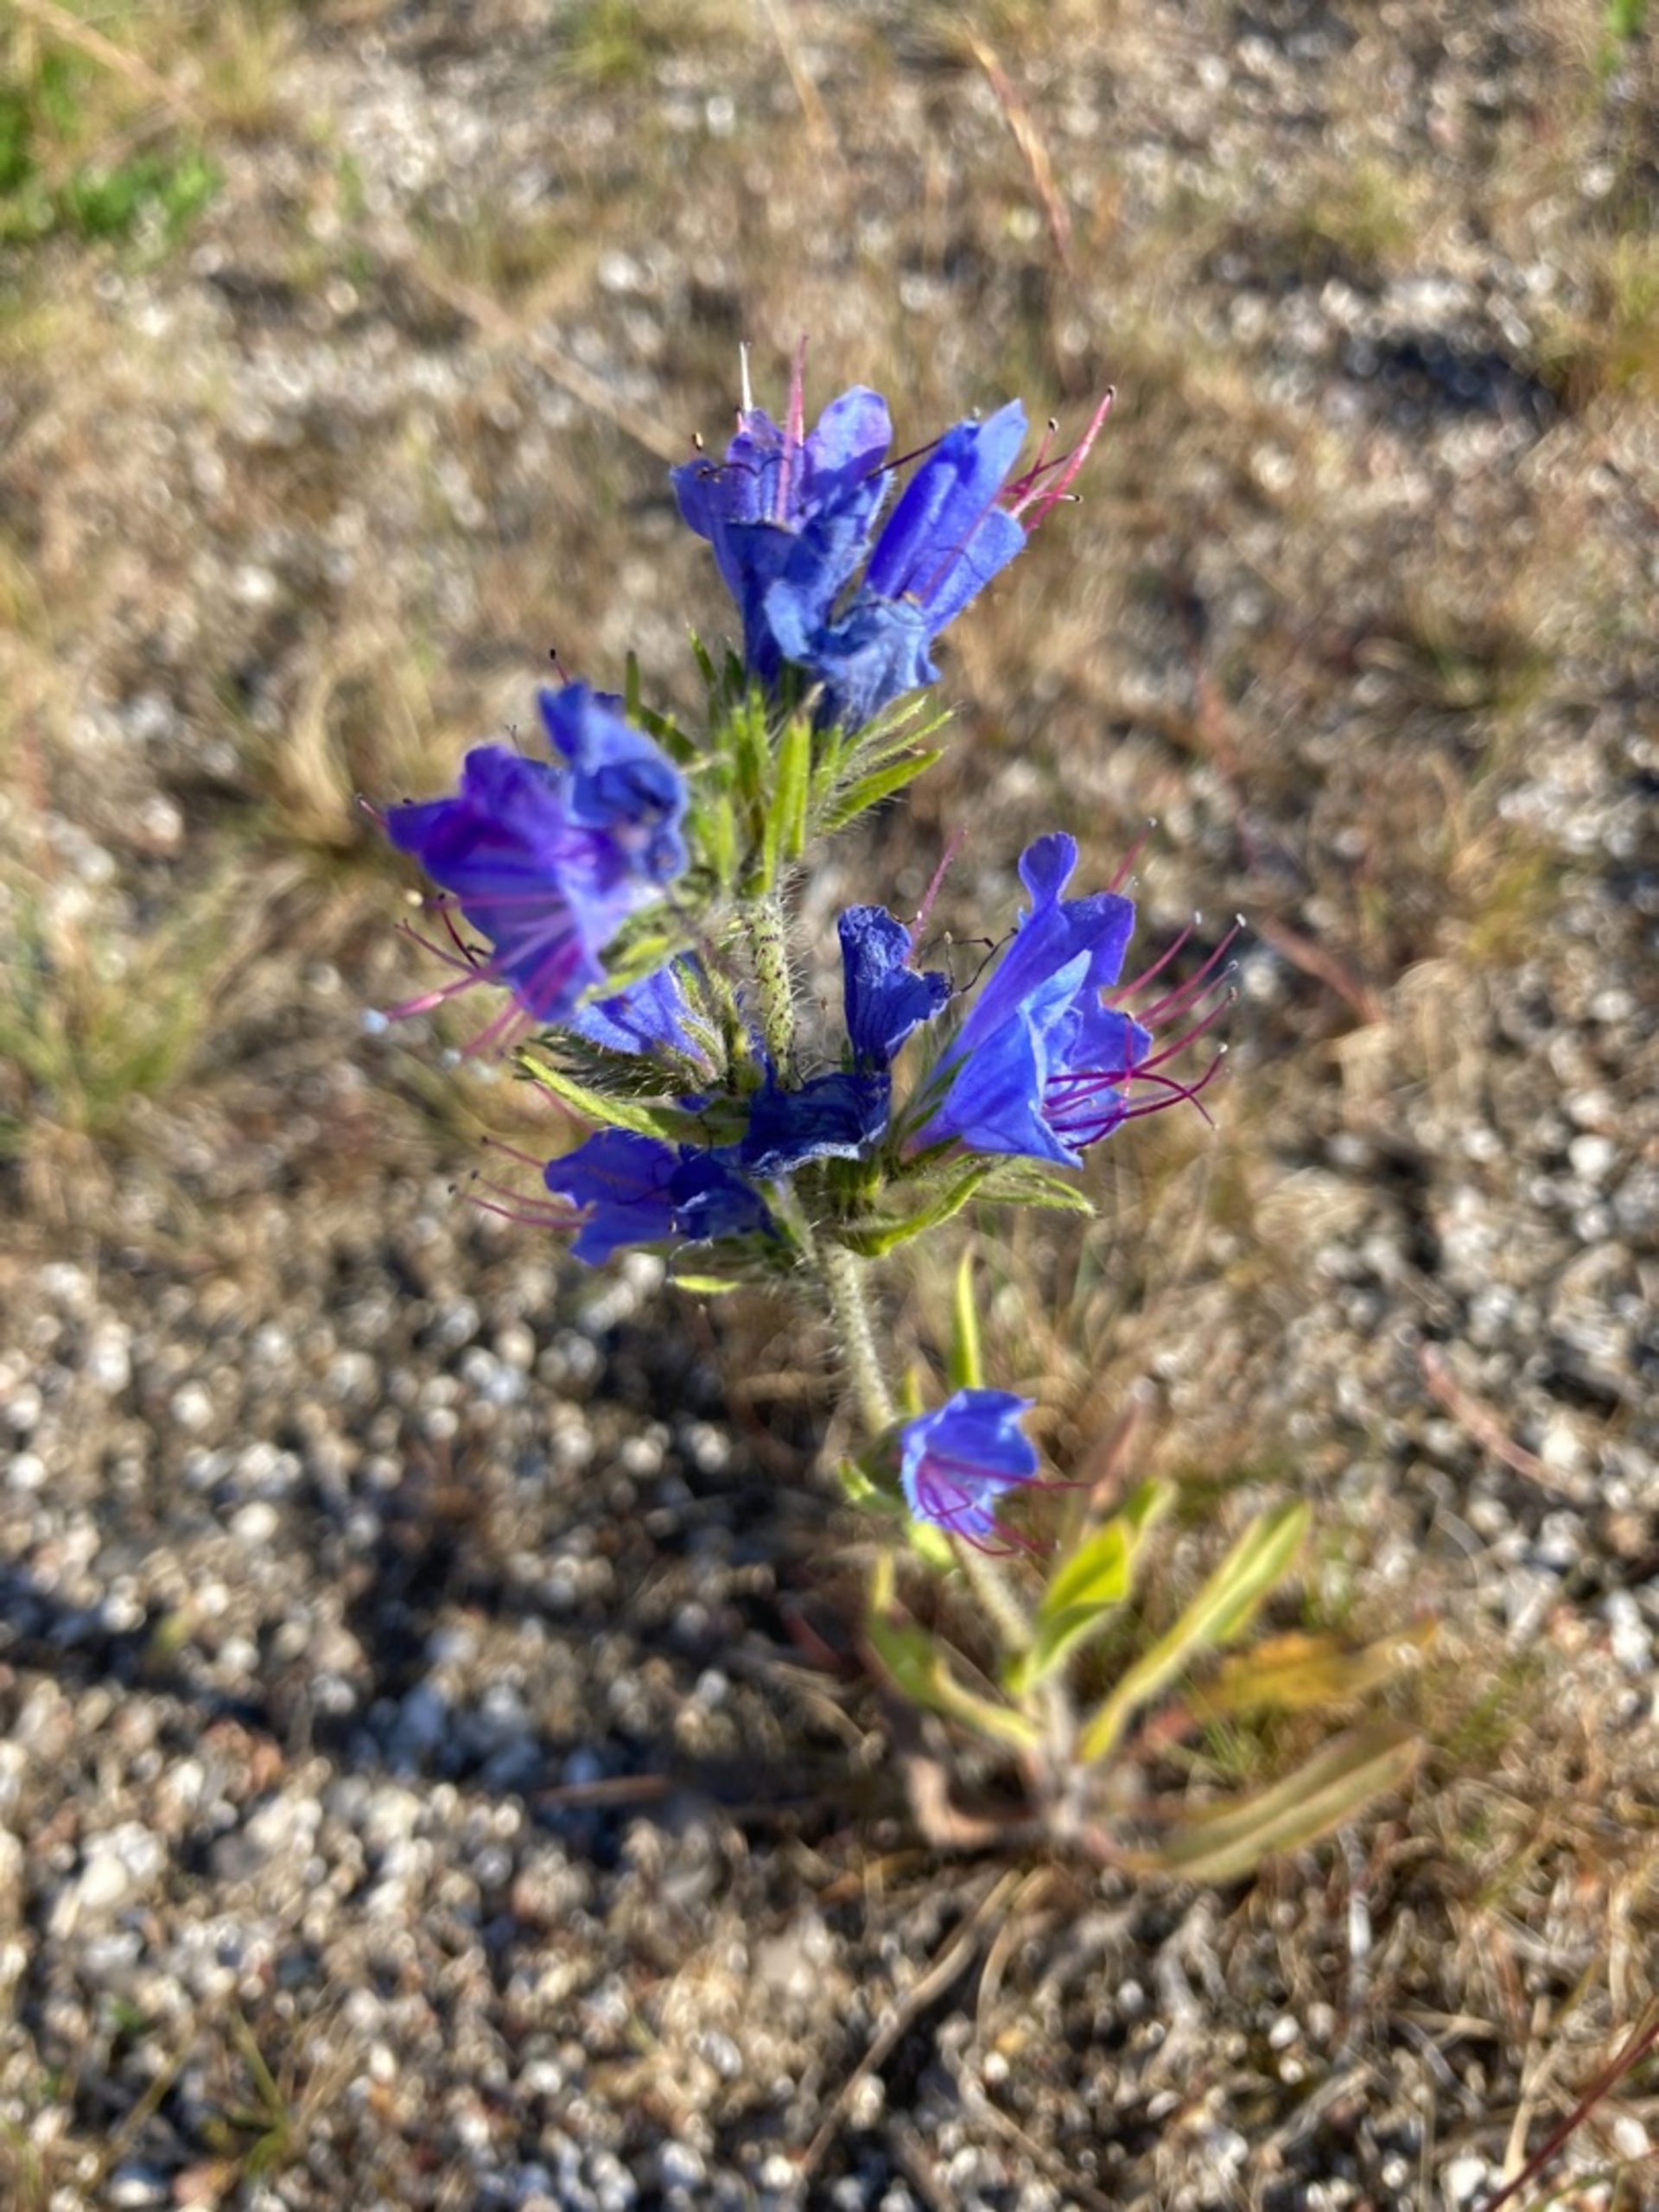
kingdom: Plantae
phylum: Tracheophyta
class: Magnoliopsida
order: Boraginales
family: Boraginaceae
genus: Echium
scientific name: Echium vulgare
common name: Slangehoved
